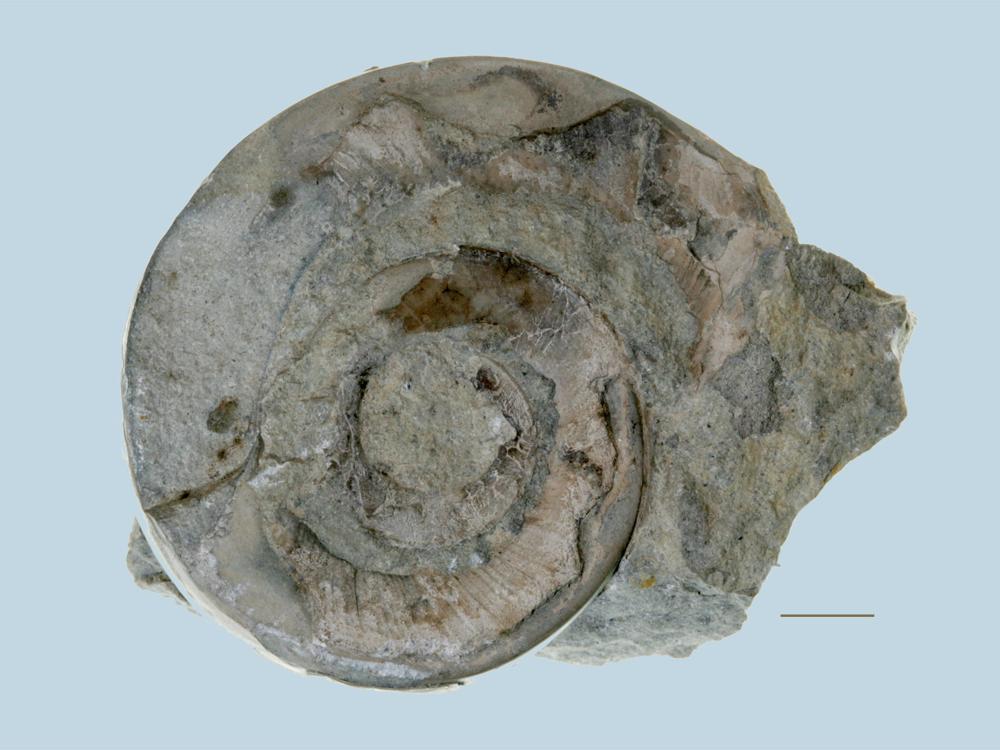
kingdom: Animalia
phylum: Mollusca
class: Gastropoda
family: Lesueurillidae
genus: Pararaphistoma
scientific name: Pararaphistoma Raphistoma vaginati
